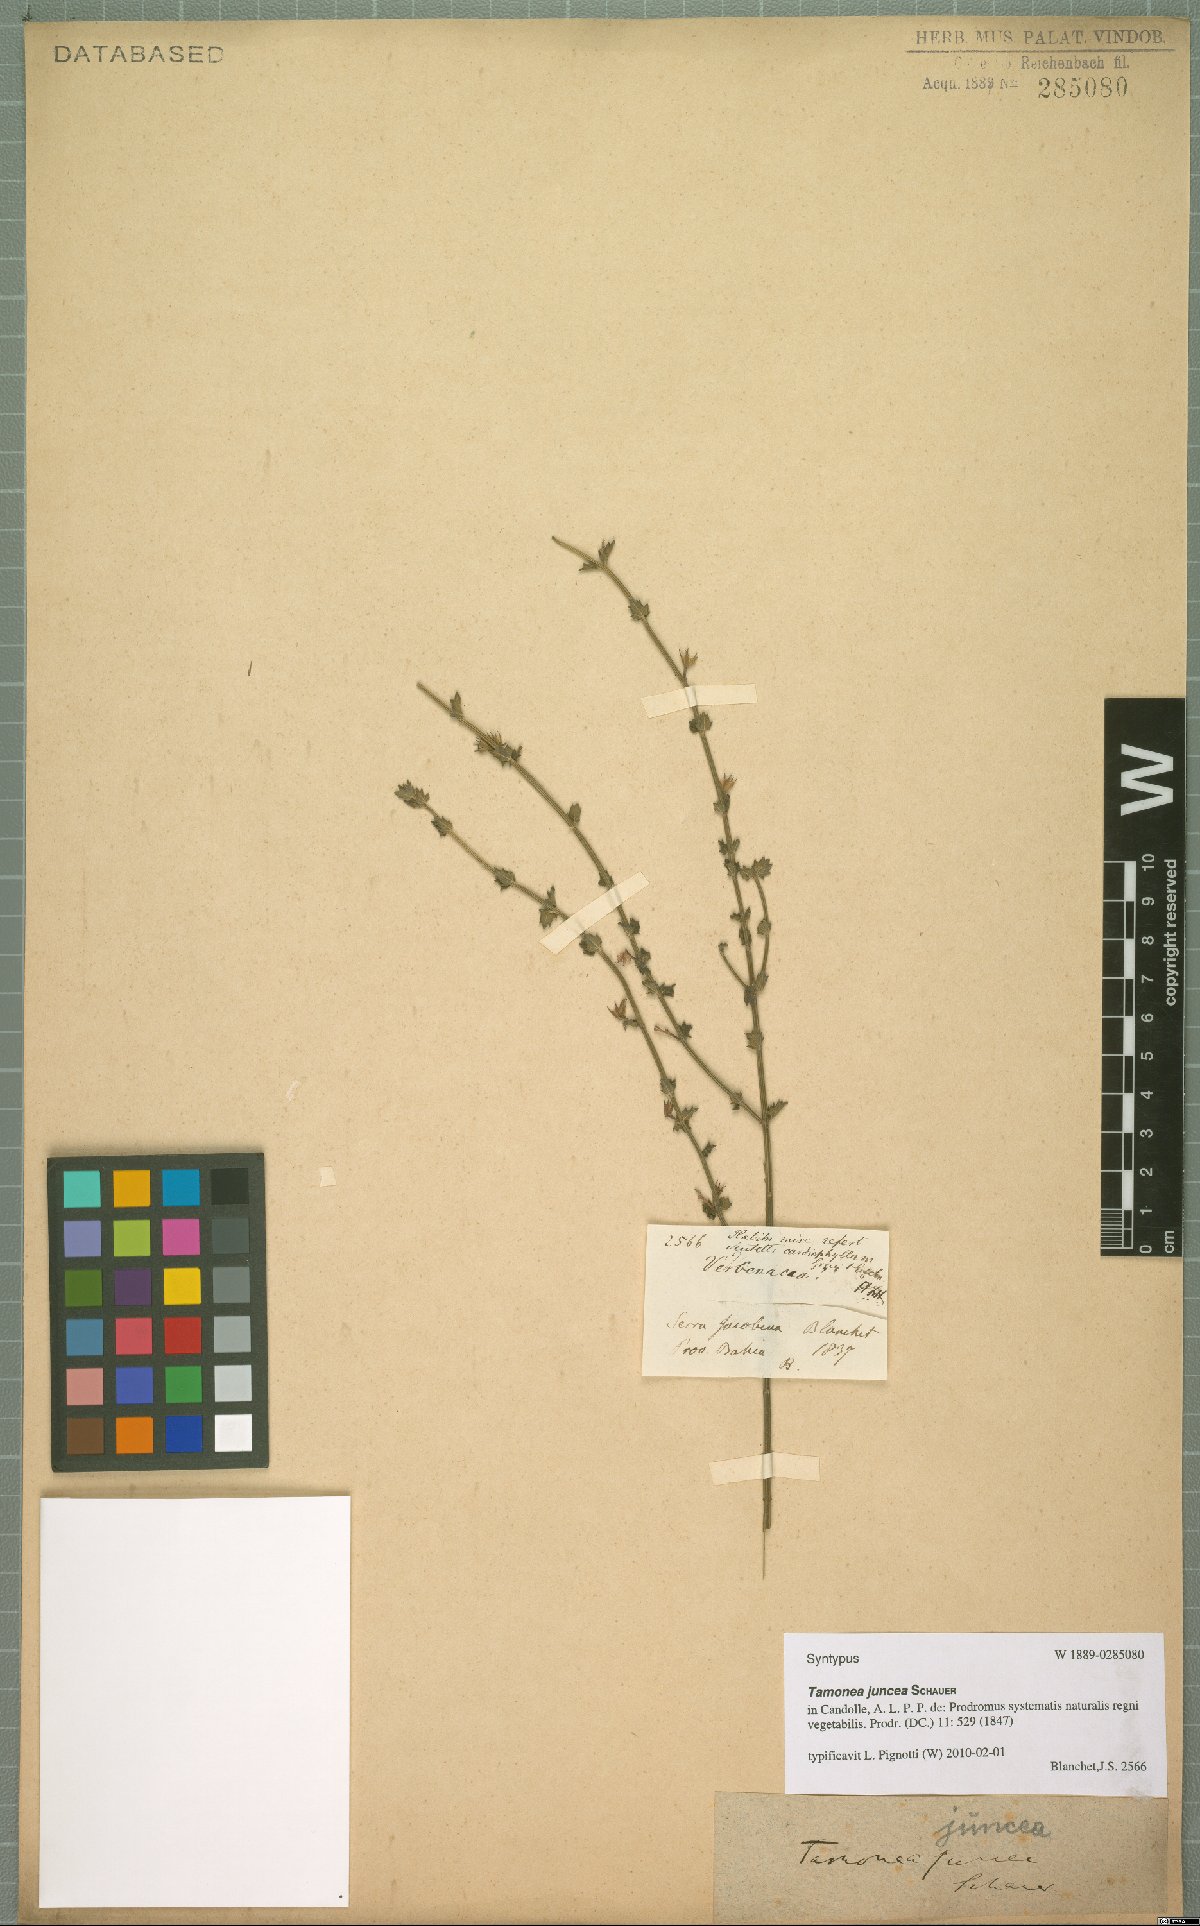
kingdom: Plantae
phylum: Tracheophyta
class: Magnoliopsida
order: Lamiales
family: Verbenaceae
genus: Tamonea
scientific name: Tamonea juncea
